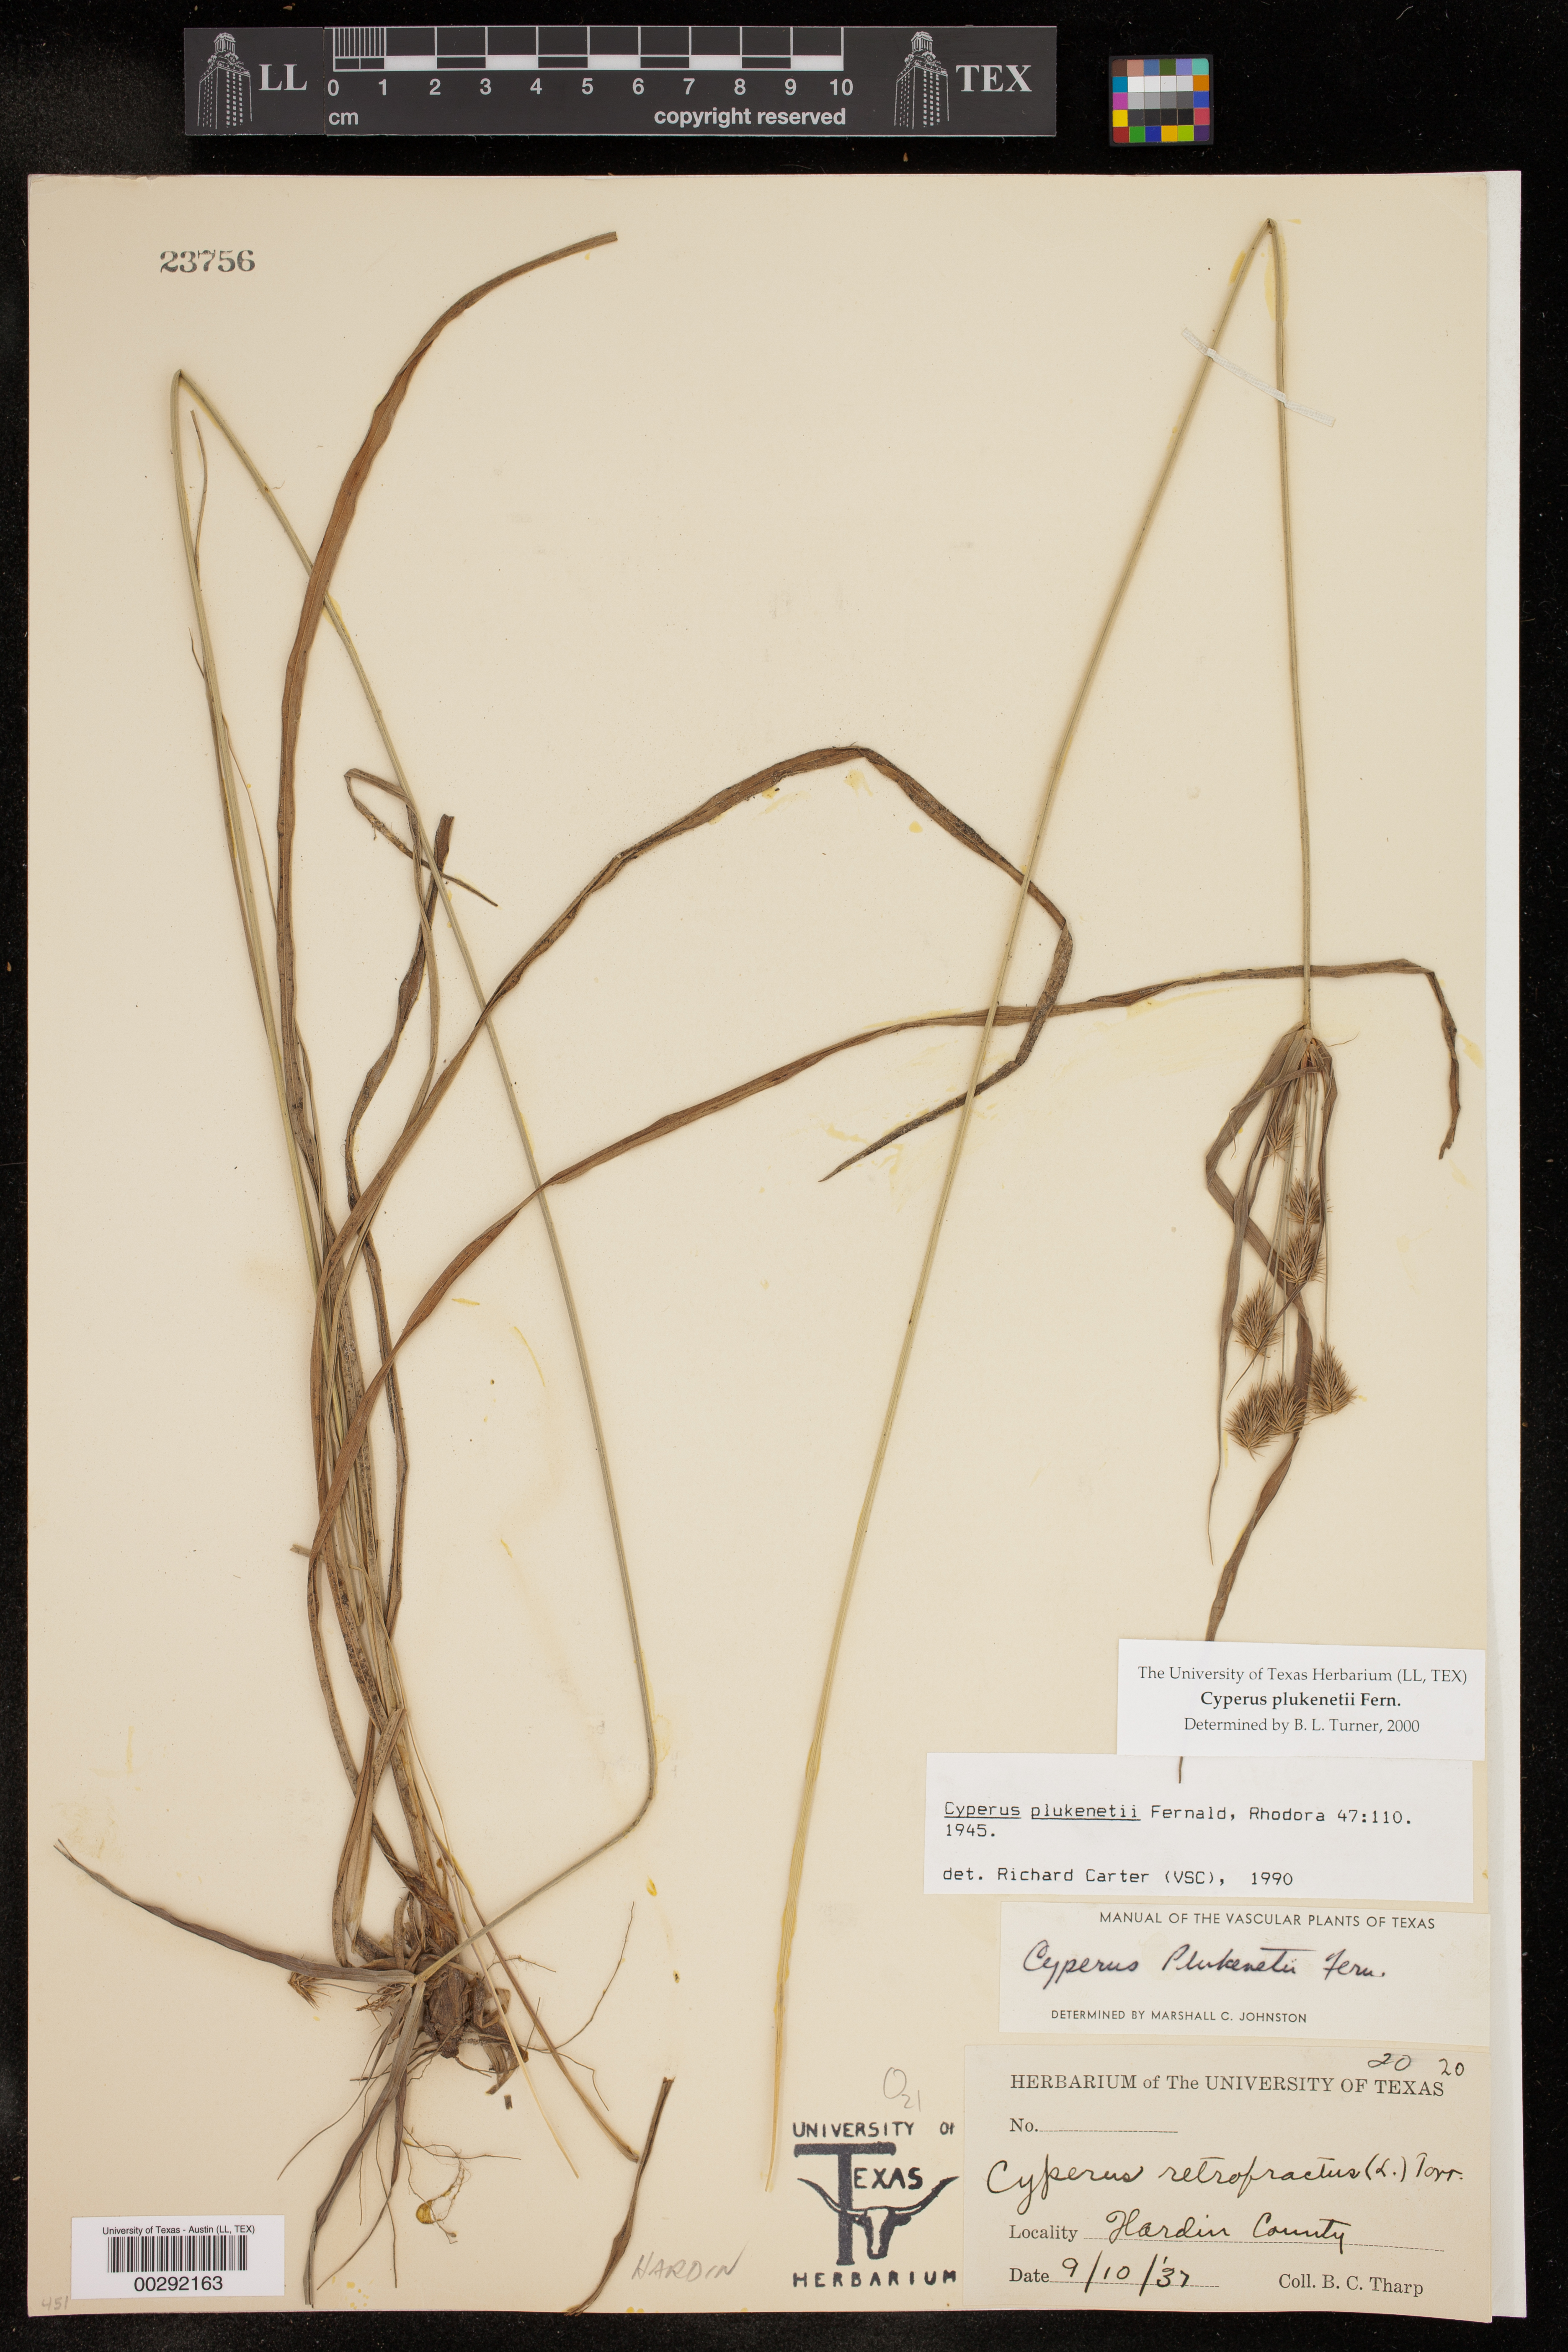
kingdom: Plantae
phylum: Tracheophyta
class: Liliopsida
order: Poales
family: Cyperaceae
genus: Cyperus
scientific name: Cyperus plukenetii
